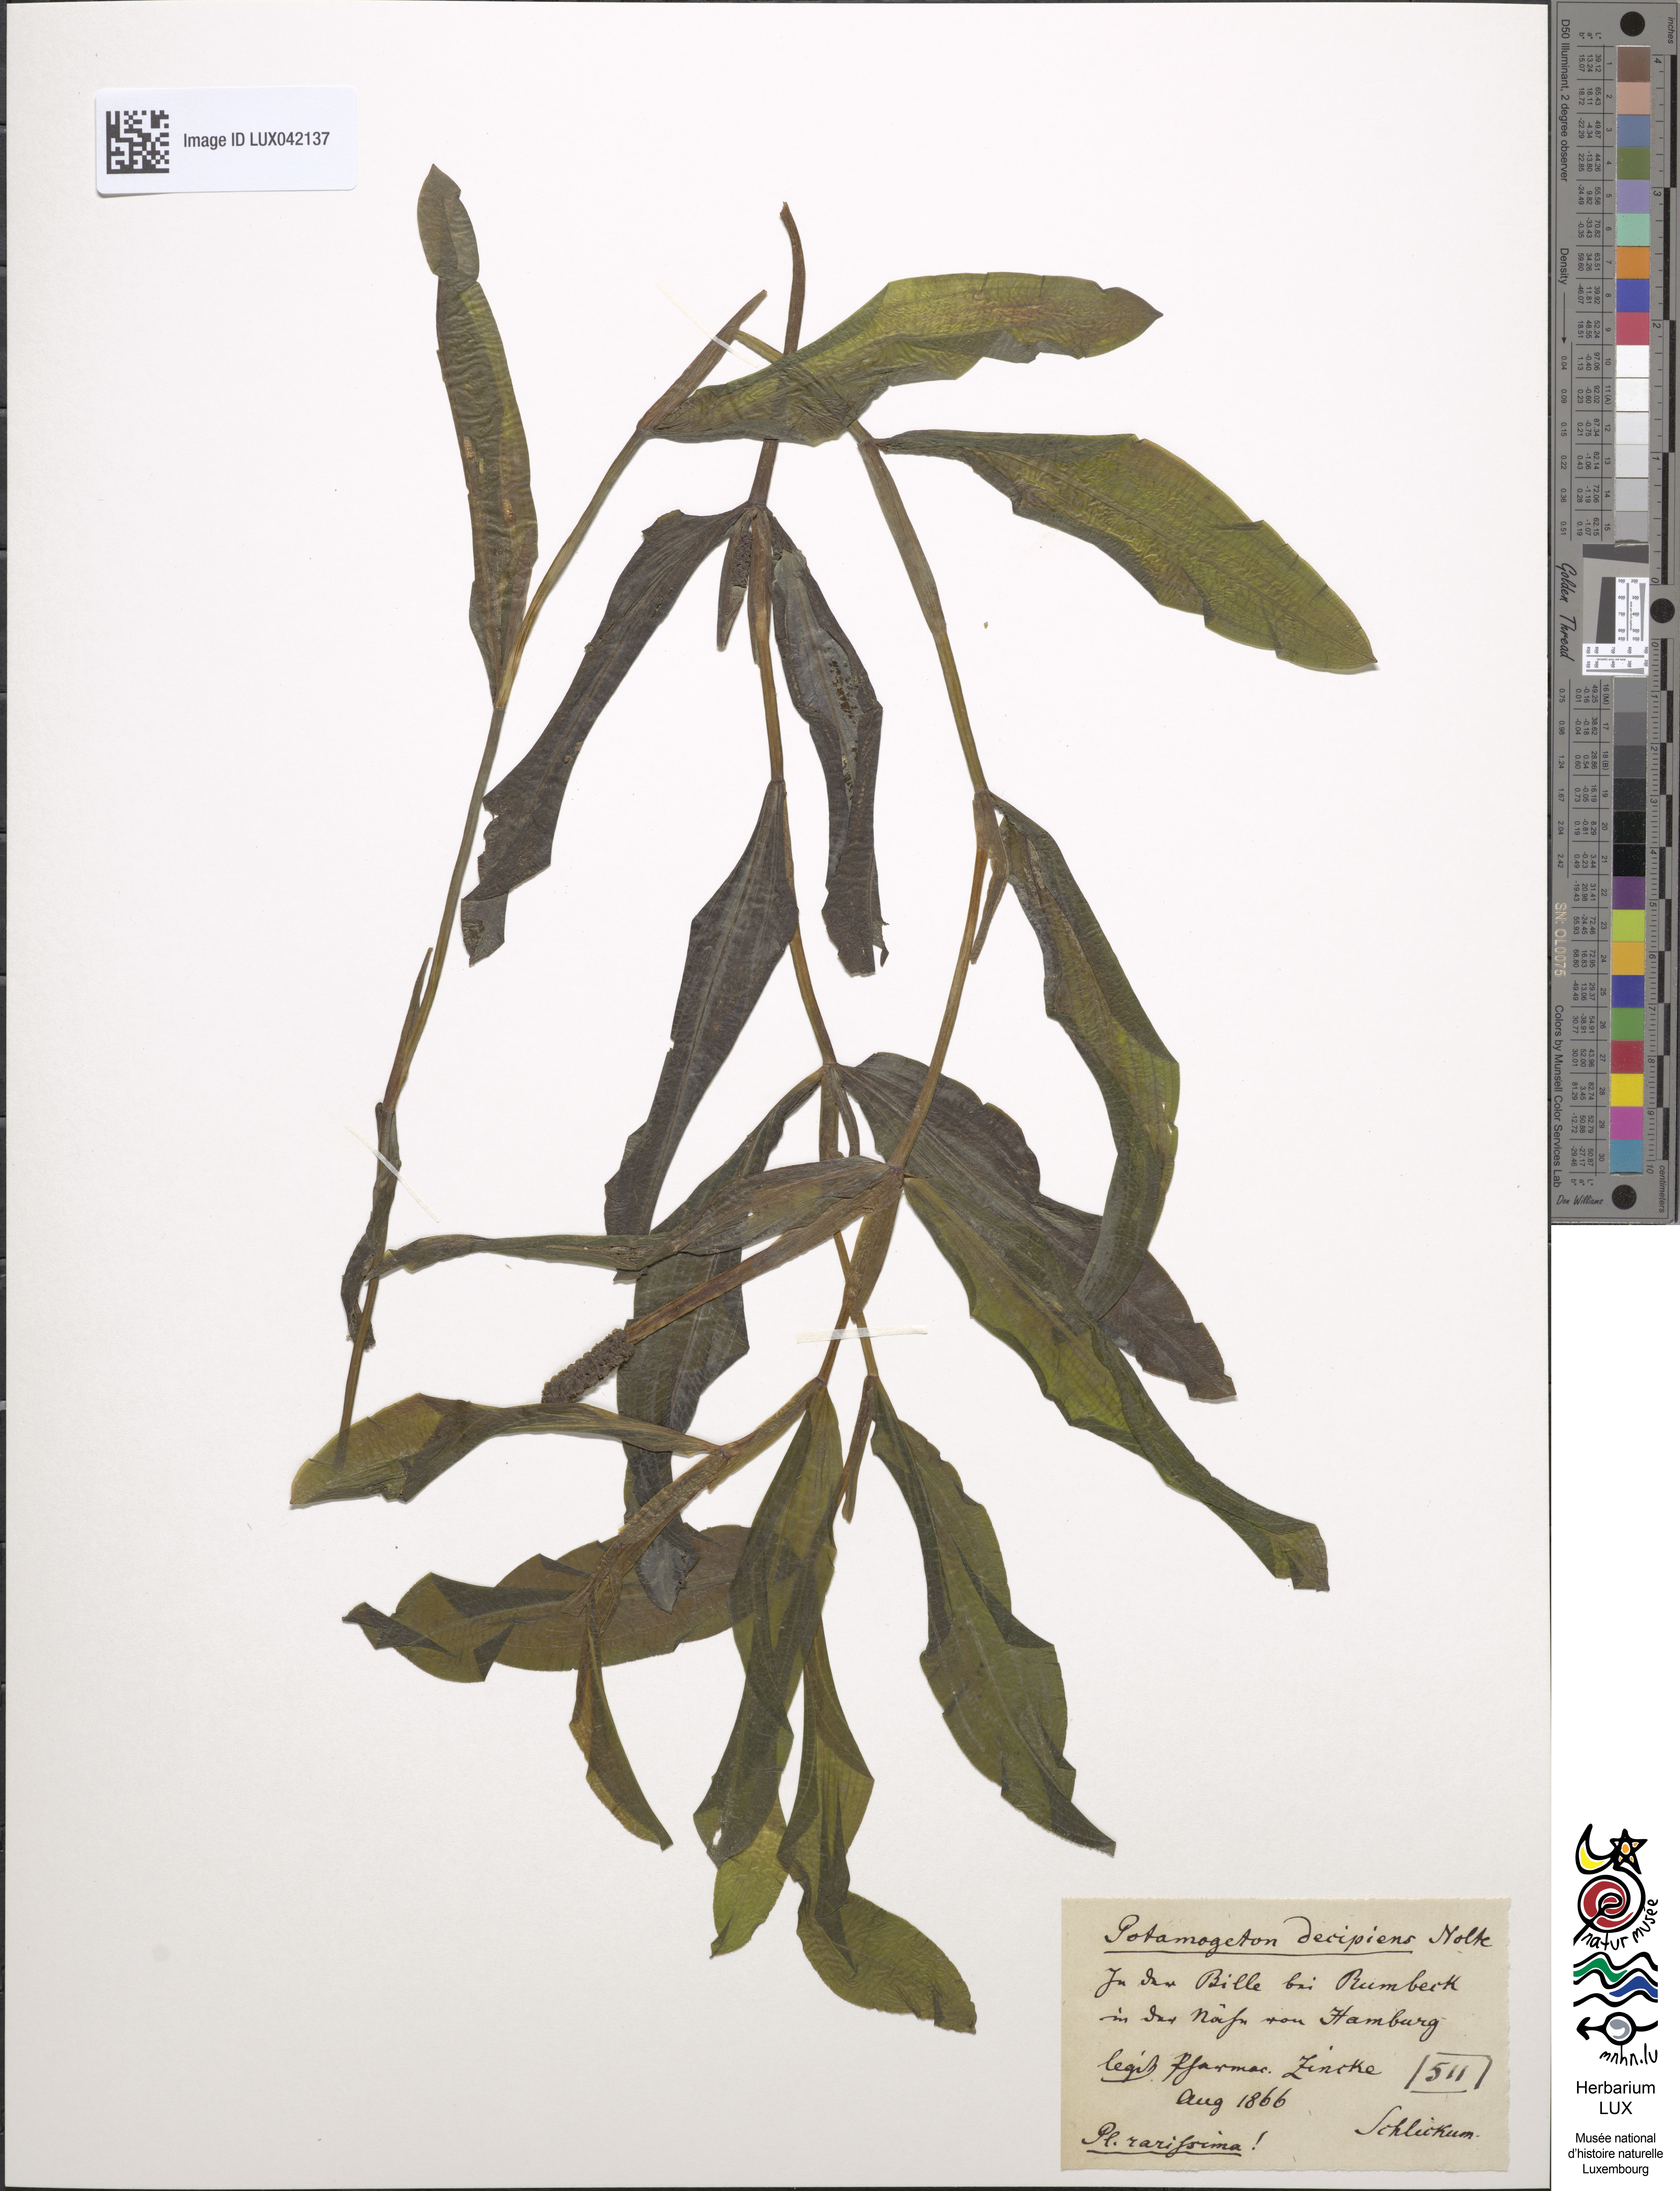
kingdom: Plantae
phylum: Tracheophyta
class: Liliopsida
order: Alismatales
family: Potamogetonaceae
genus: Potamogeton
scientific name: Potamogeton salicifolius
